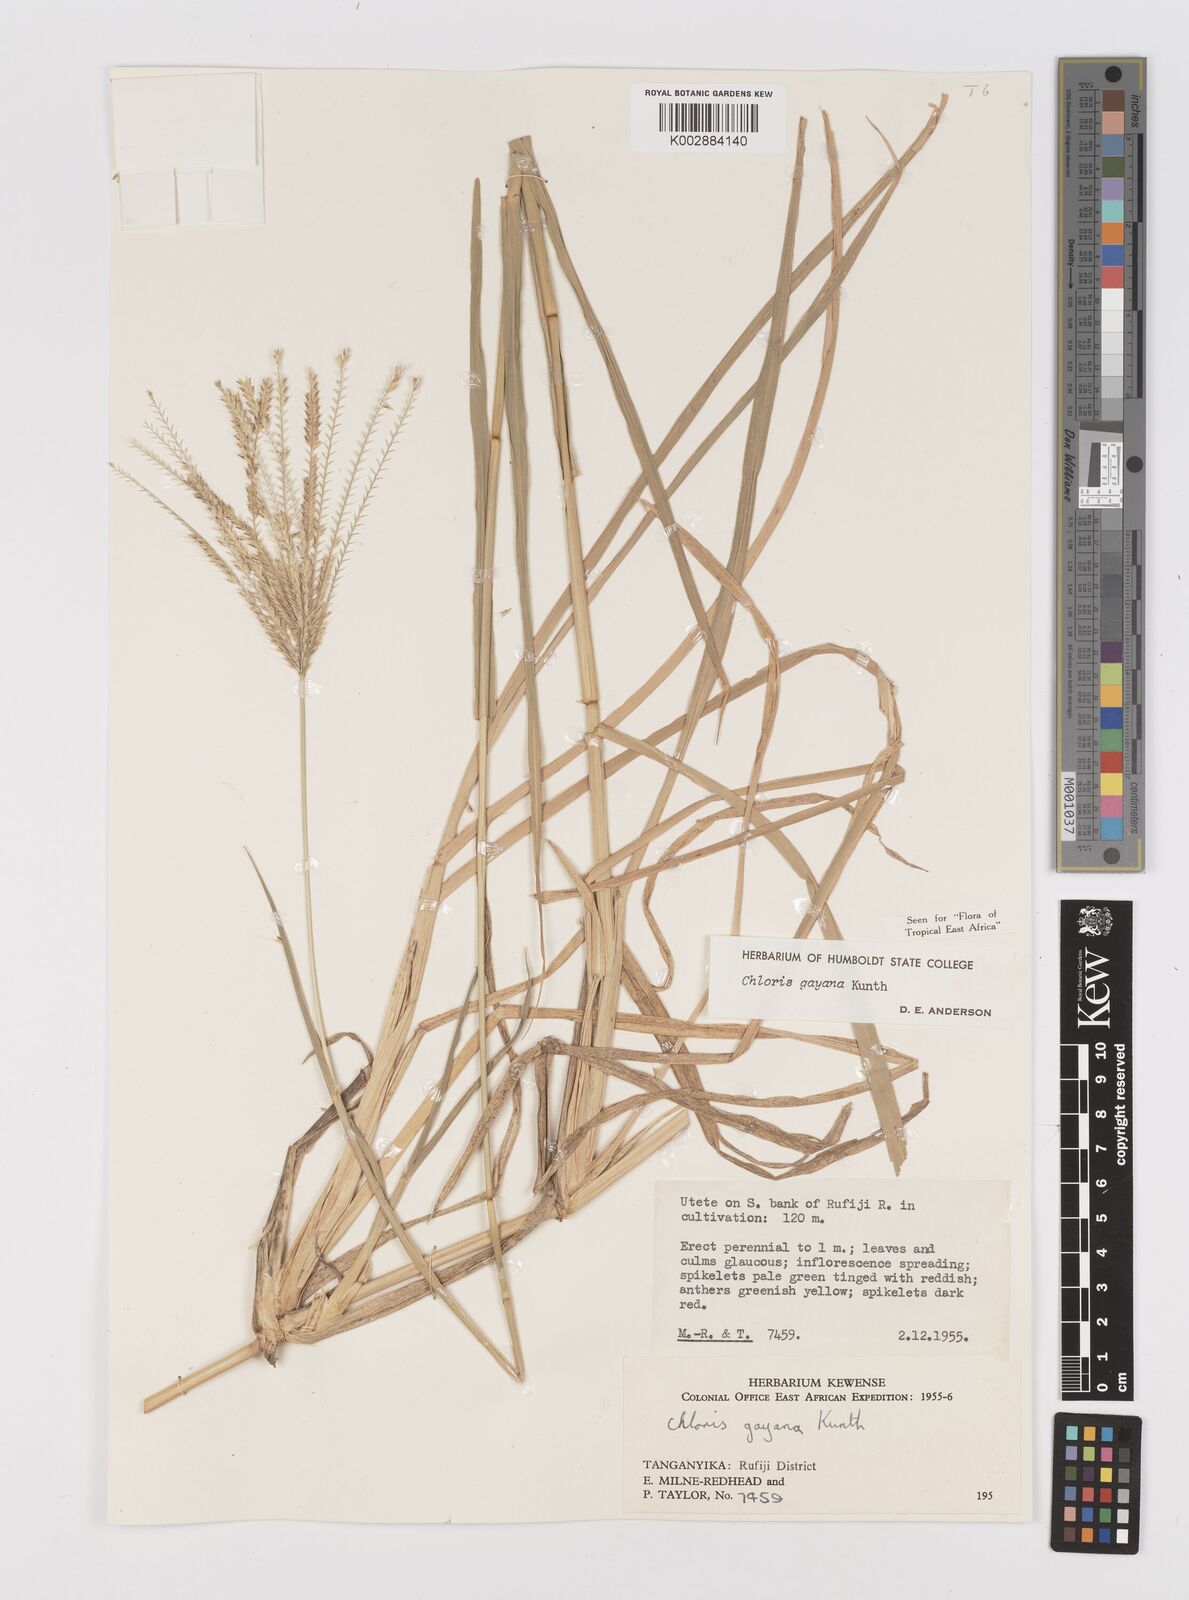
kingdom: Plantae
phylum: Tracheophyta
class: Liliopsida
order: Poales
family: Poaceae
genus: Chloris
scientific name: Chloris gayana
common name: Rhodes grass
